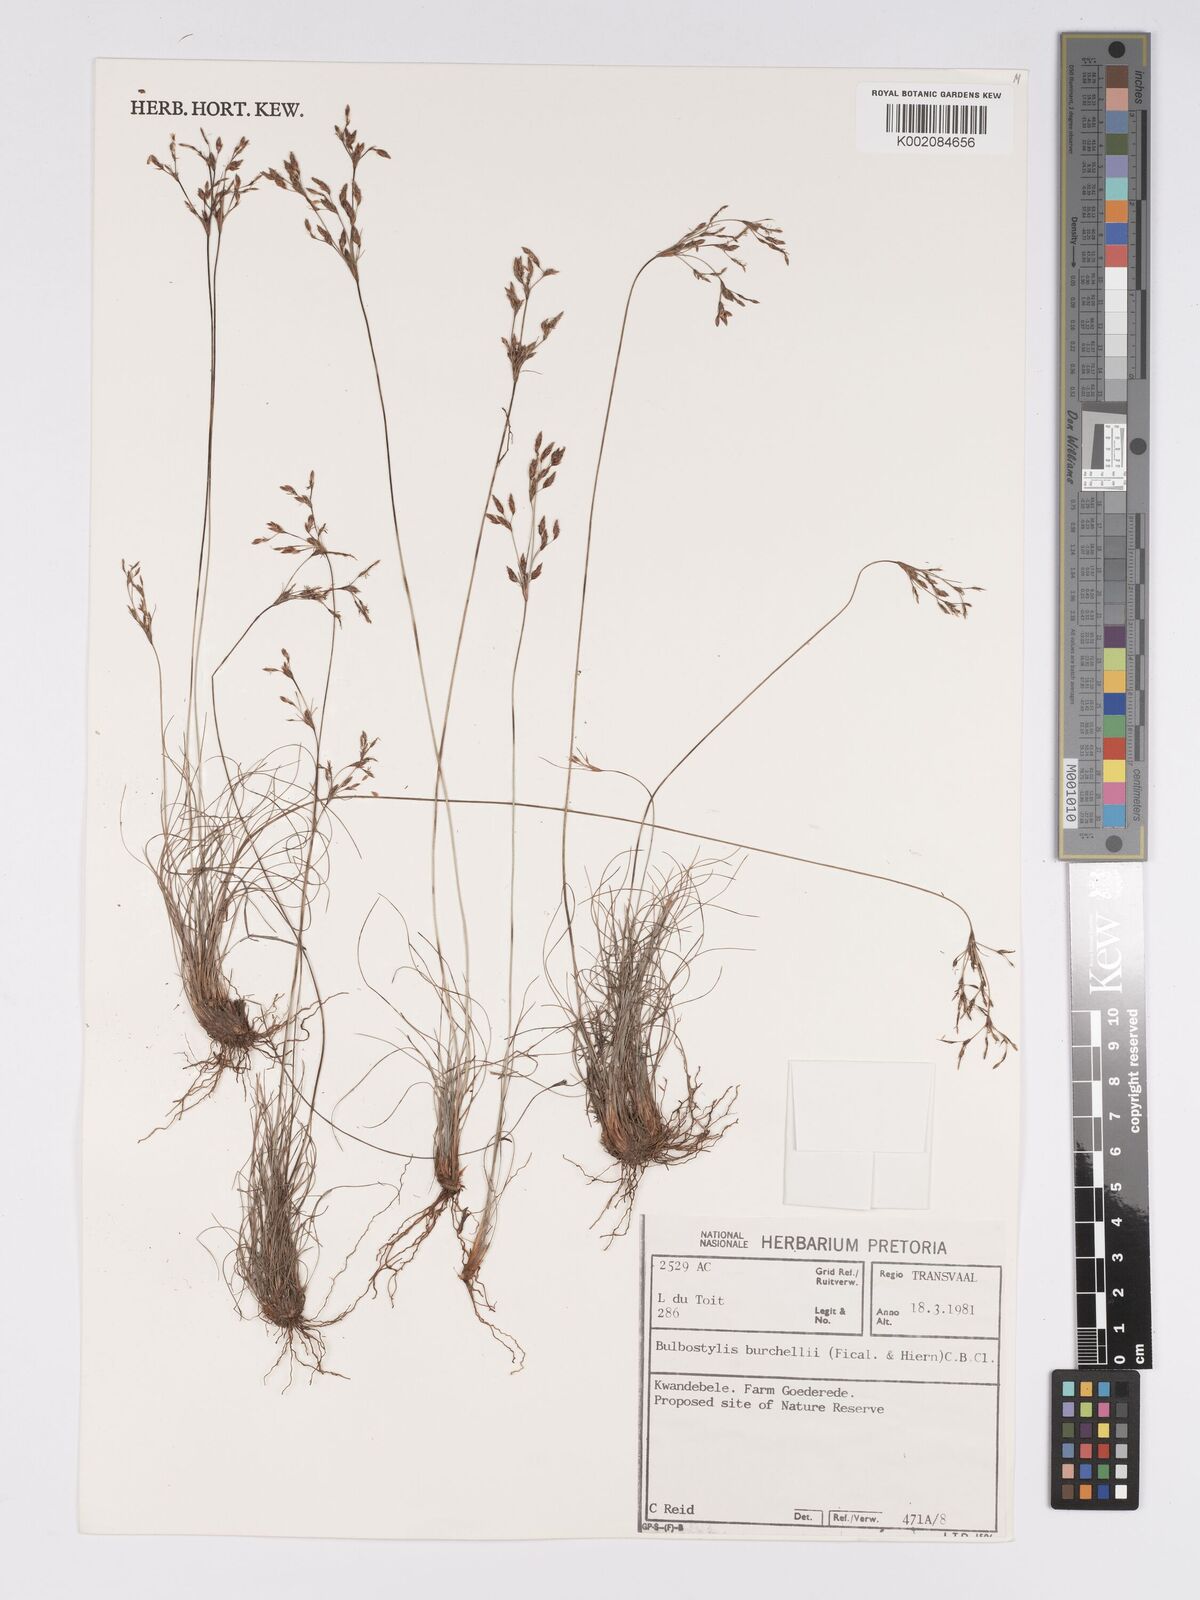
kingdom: Plantae
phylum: Tracheophyta
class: Liliopsida
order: Poales
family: Cyperaceae
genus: Bulbostylis
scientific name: Bulbostylis burchellii
